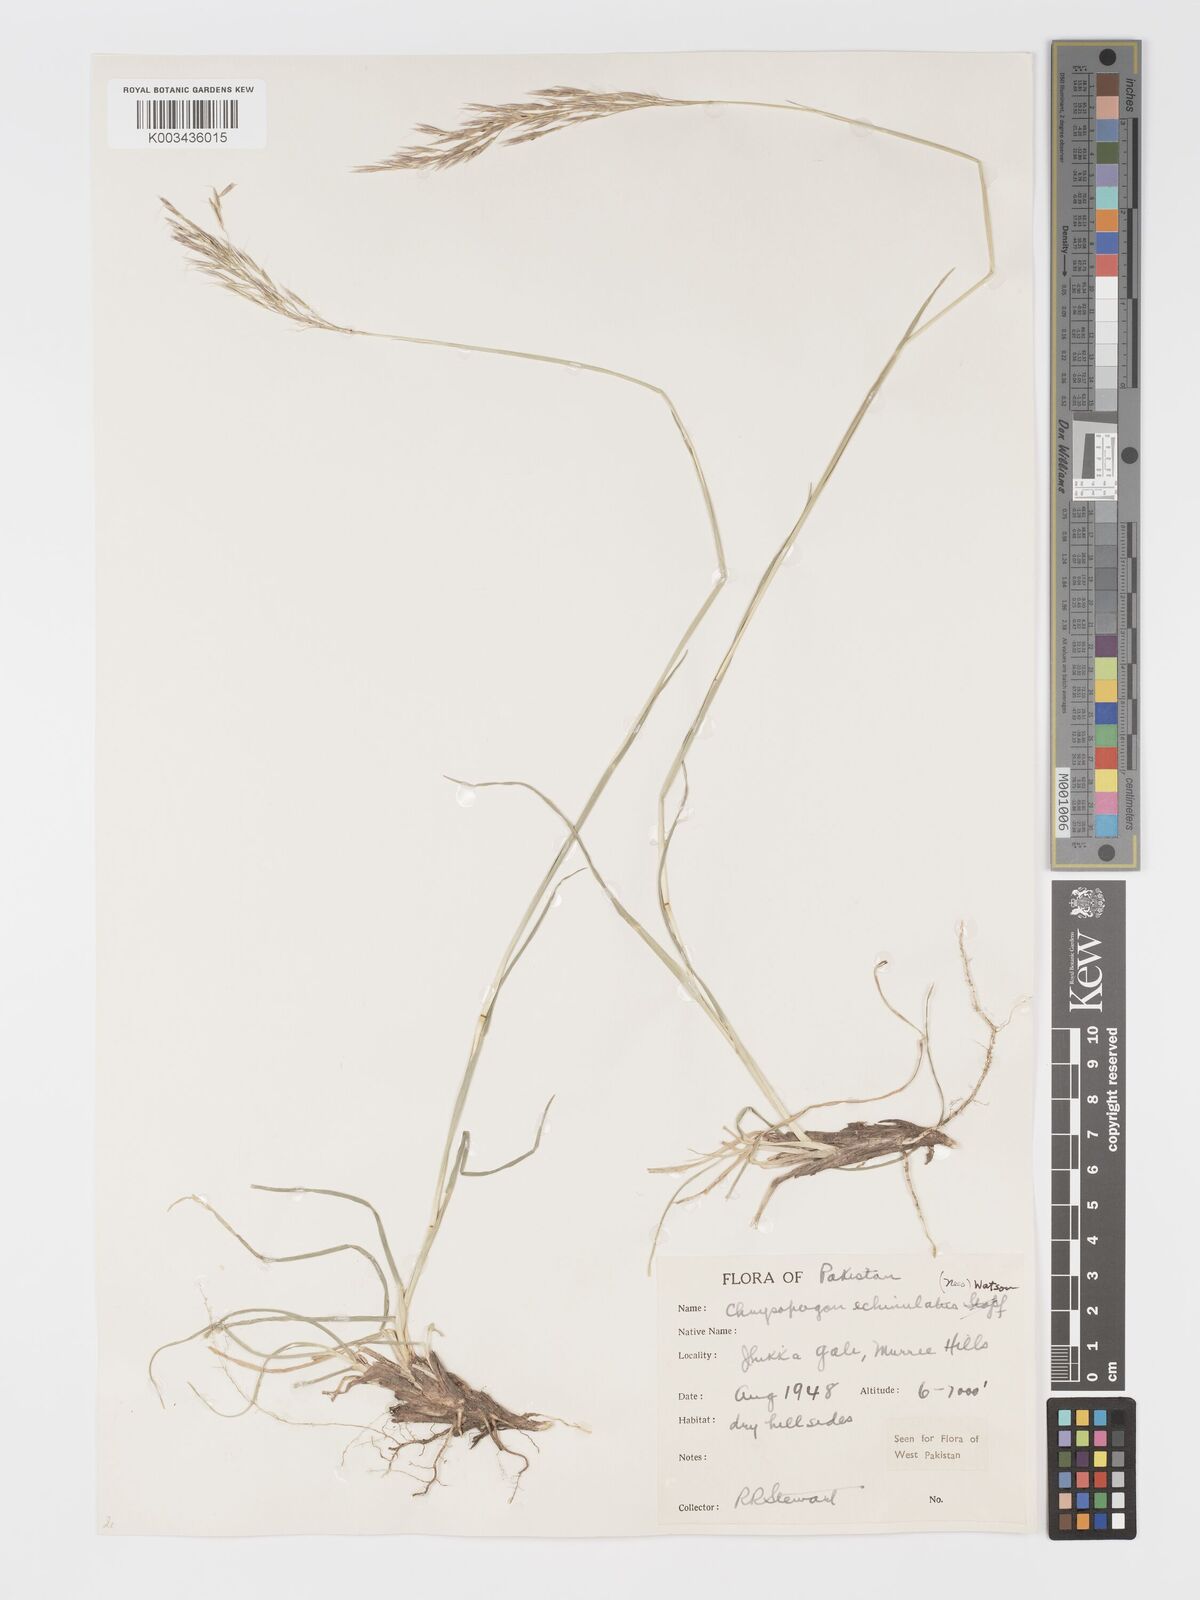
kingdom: Plantae
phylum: Tracheophyta
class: Liliopsida
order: Poales
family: Poaceae
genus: Chrysopogon
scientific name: Chrysopogon gryllus
